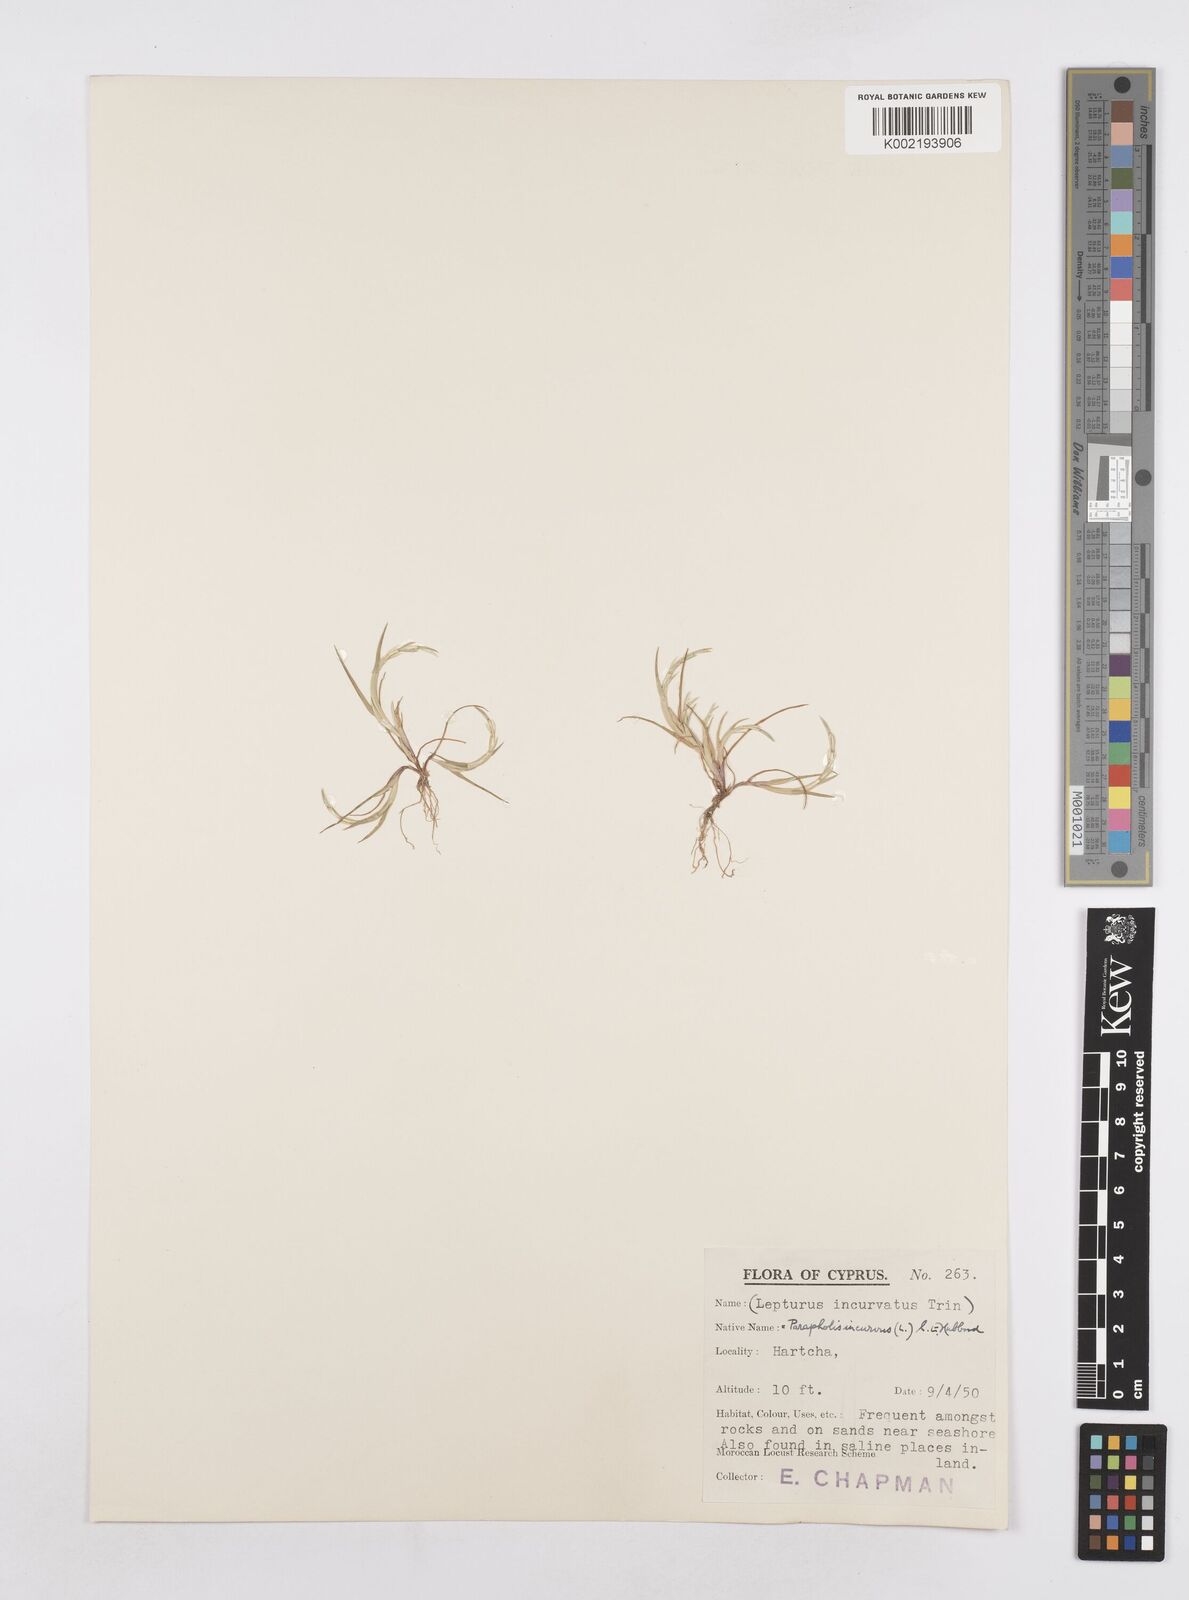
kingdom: Plantae
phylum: Tracheophyta
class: Liliopsida
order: Poales
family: Poaceae
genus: Parapholis
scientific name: Parapholis incurva
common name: Curved sicklegrass
